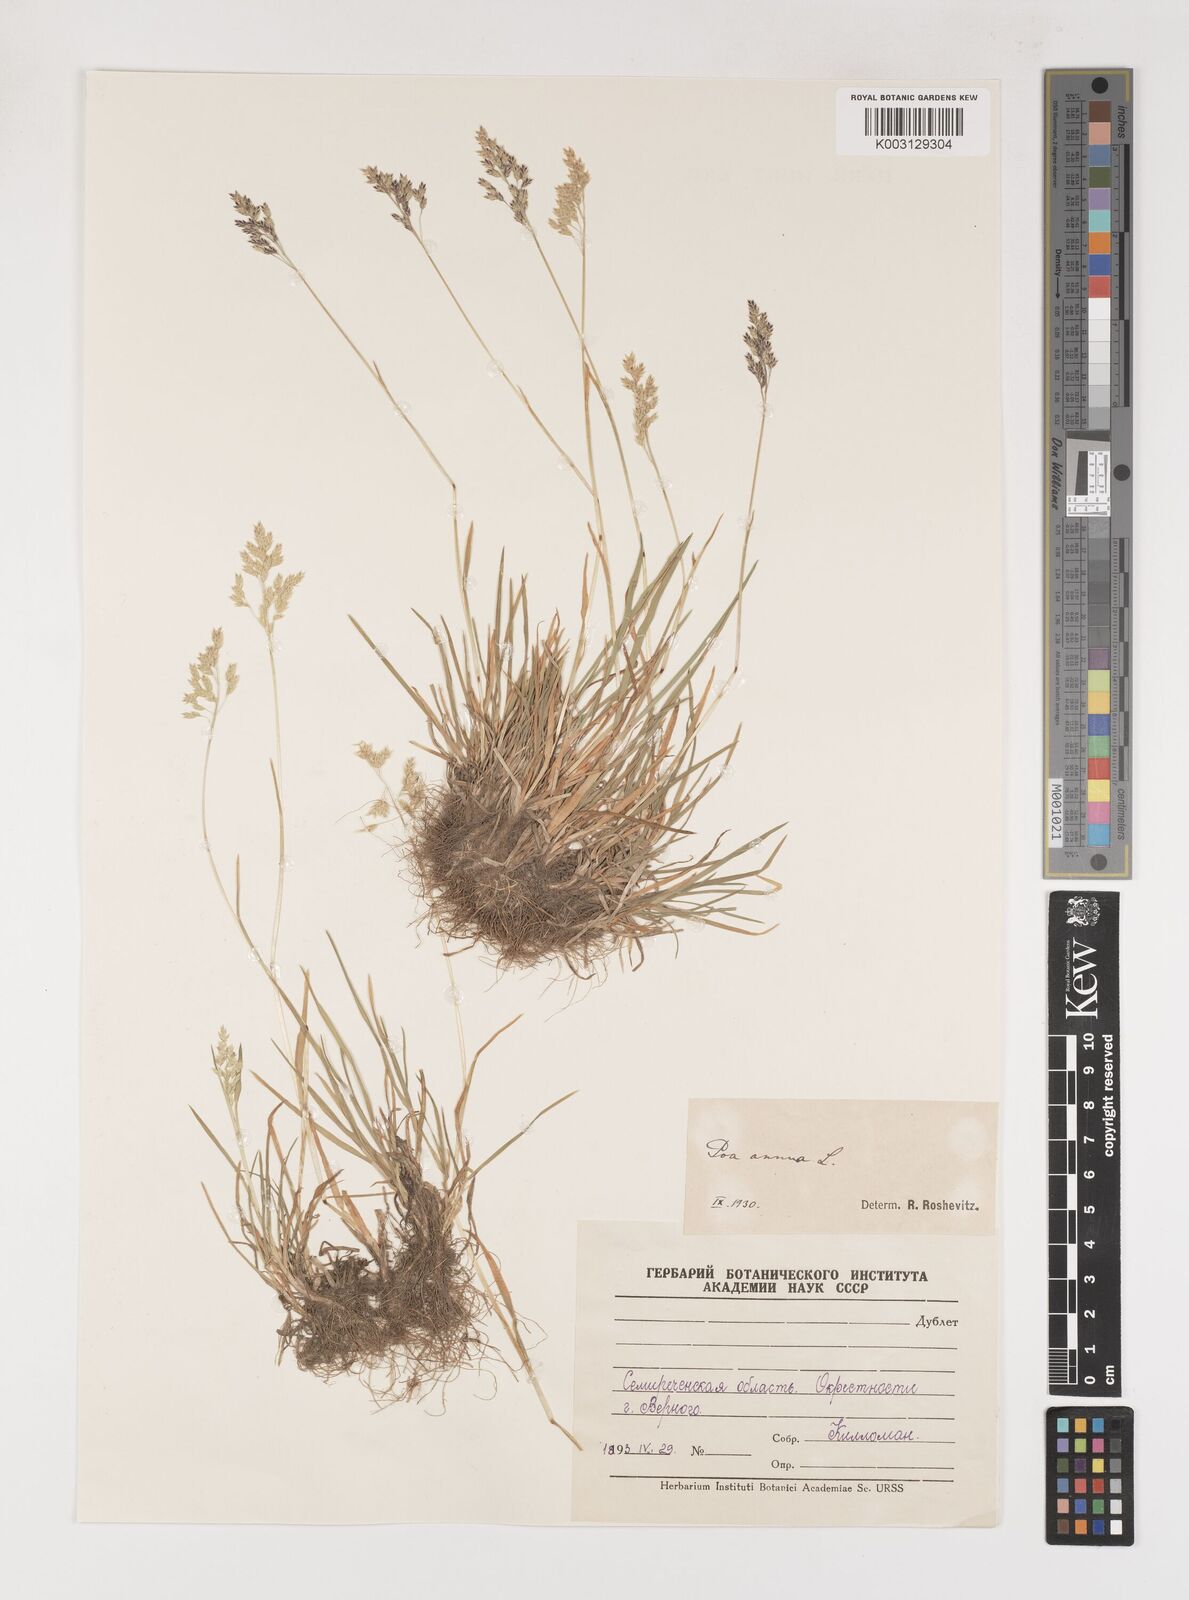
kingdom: Plantae
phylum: Tracheophyta
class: Liliopsida
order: Poales
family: Poaceae
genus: Poa
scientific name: Poa annua
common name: Annual bluegrass
